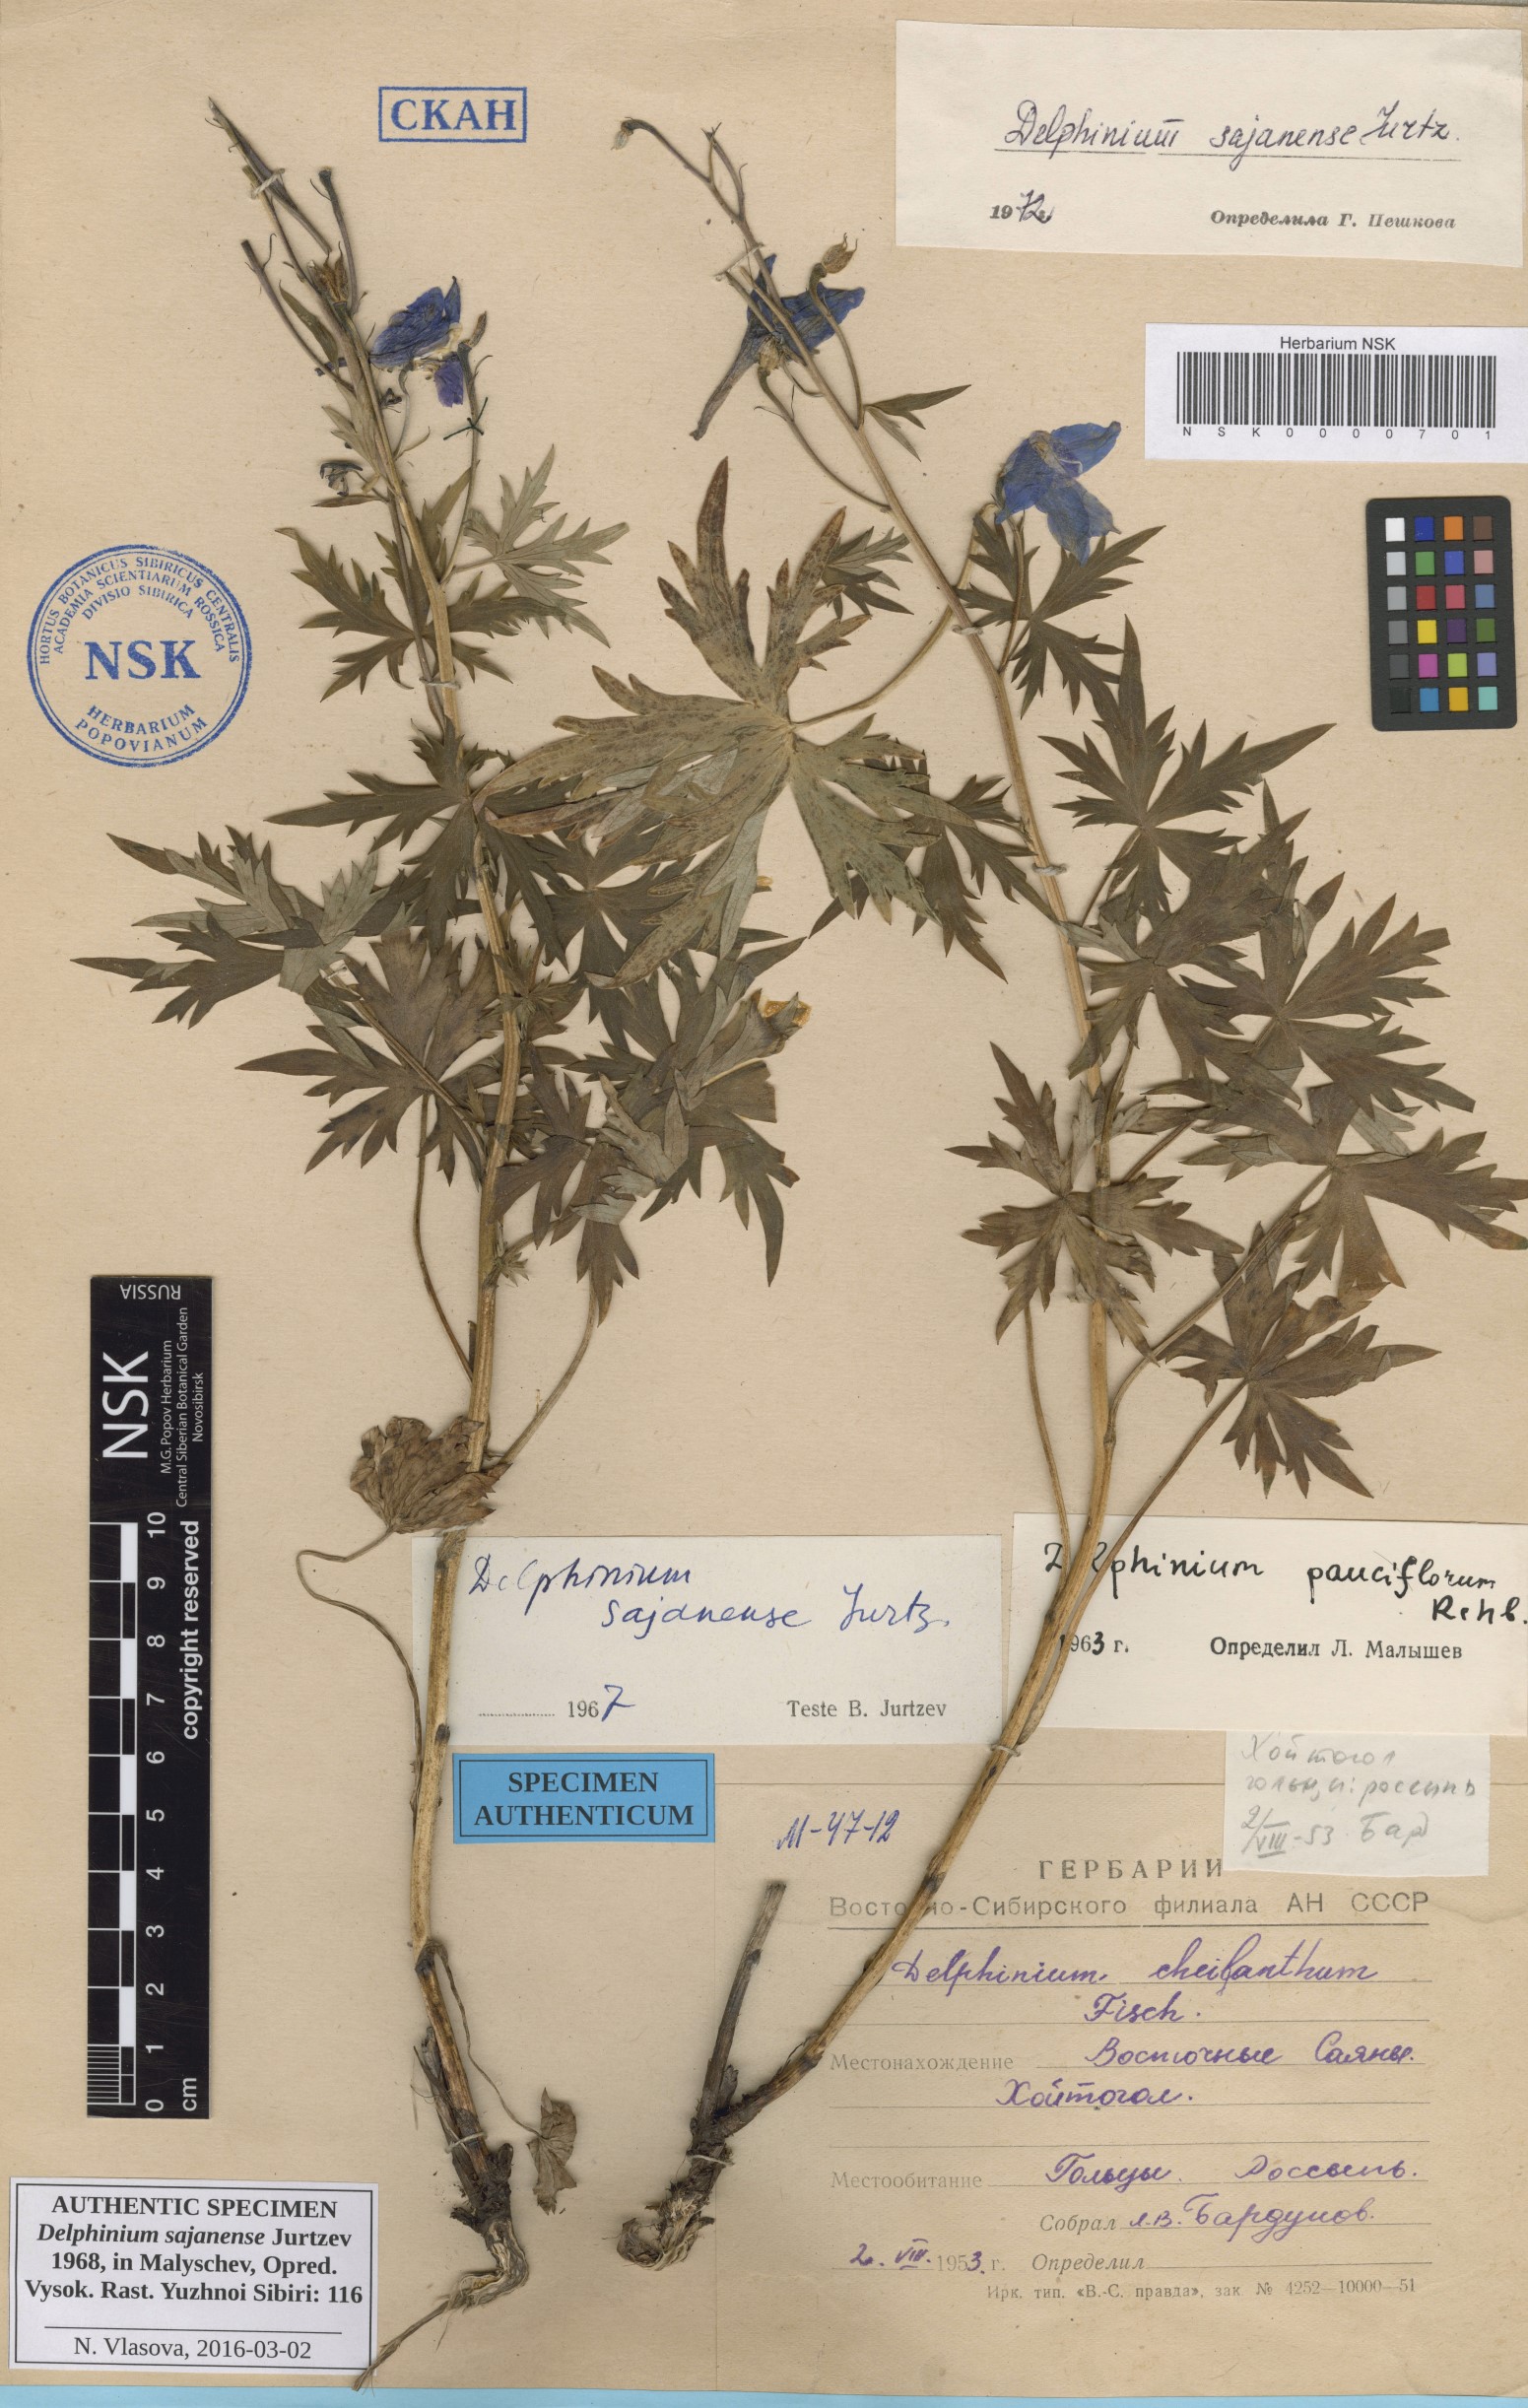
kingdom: Plantae
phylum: Tracheophyta
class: Magnoliopsida
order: Ranunculales
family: Ranunculaceae
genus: Delphinium
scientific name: Delphinium sajanense
